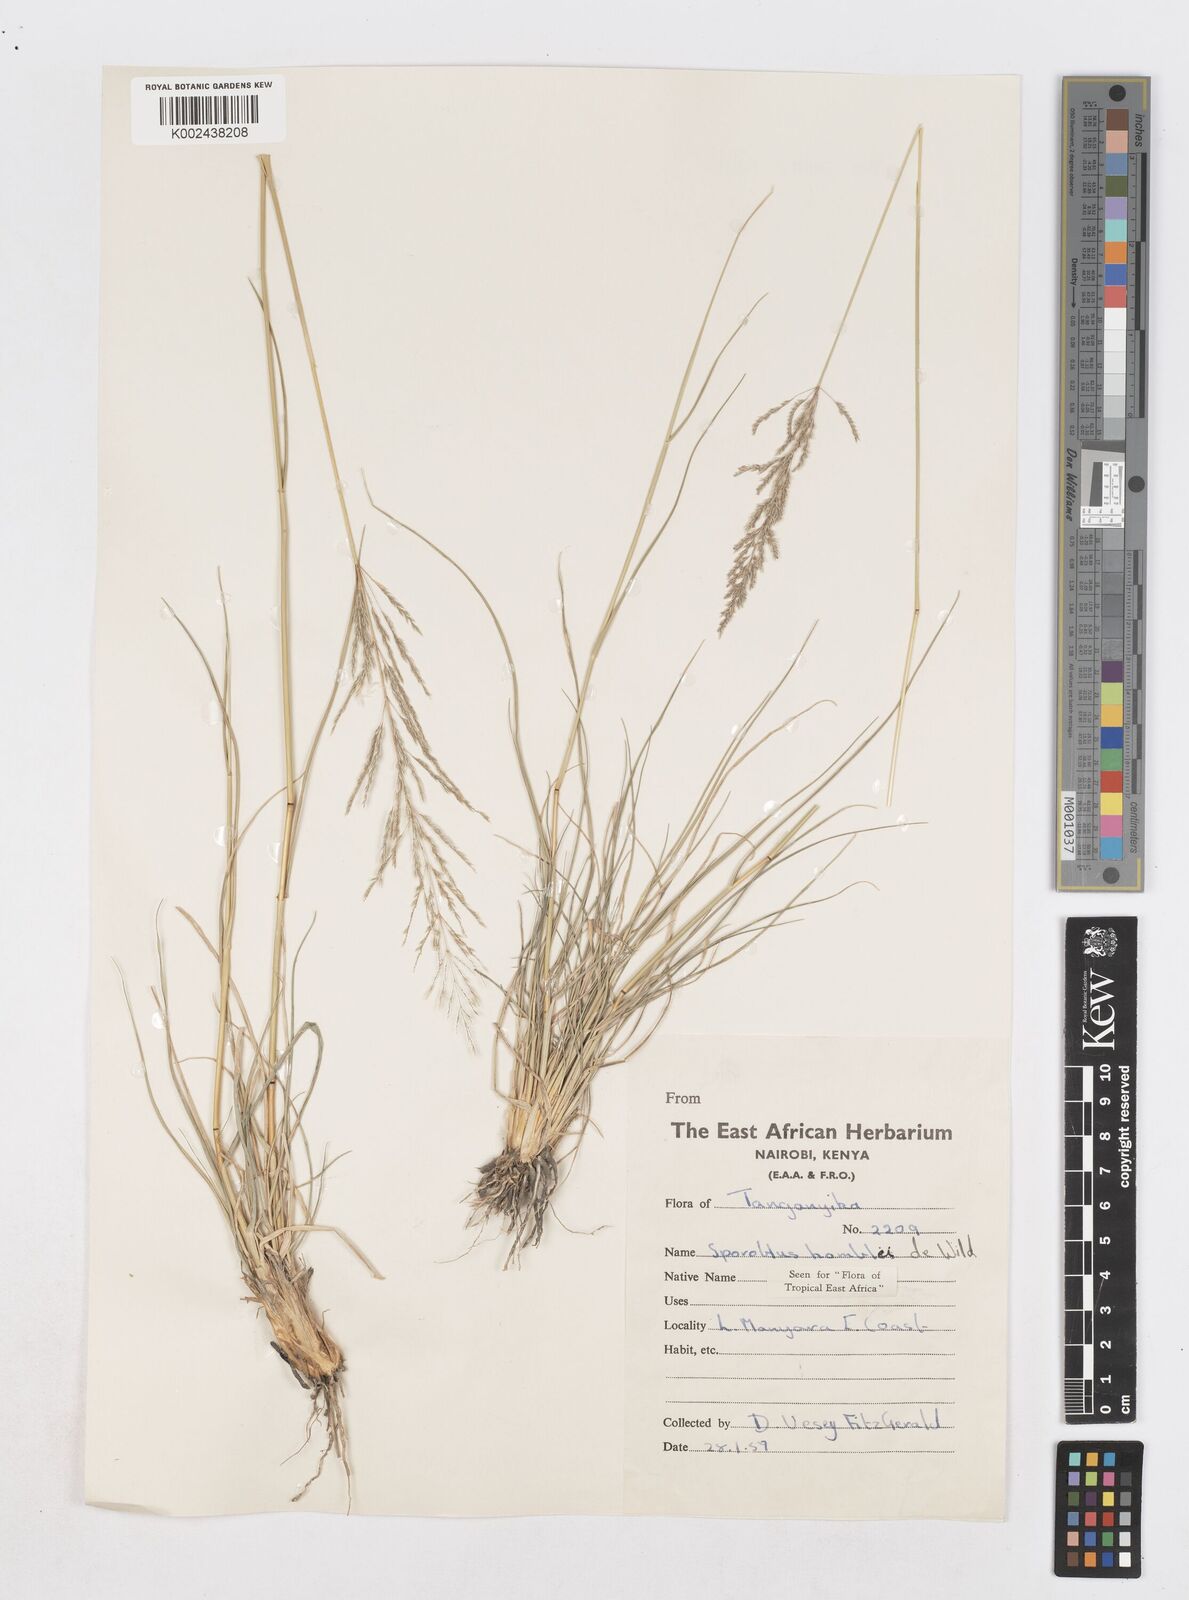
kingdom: Plantae
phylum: Tracheophyta
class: Liliopsida
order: Poales
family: Poaceae
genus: Sporobolus
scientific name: Sporobolus ioclados
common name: Pan dropseed
